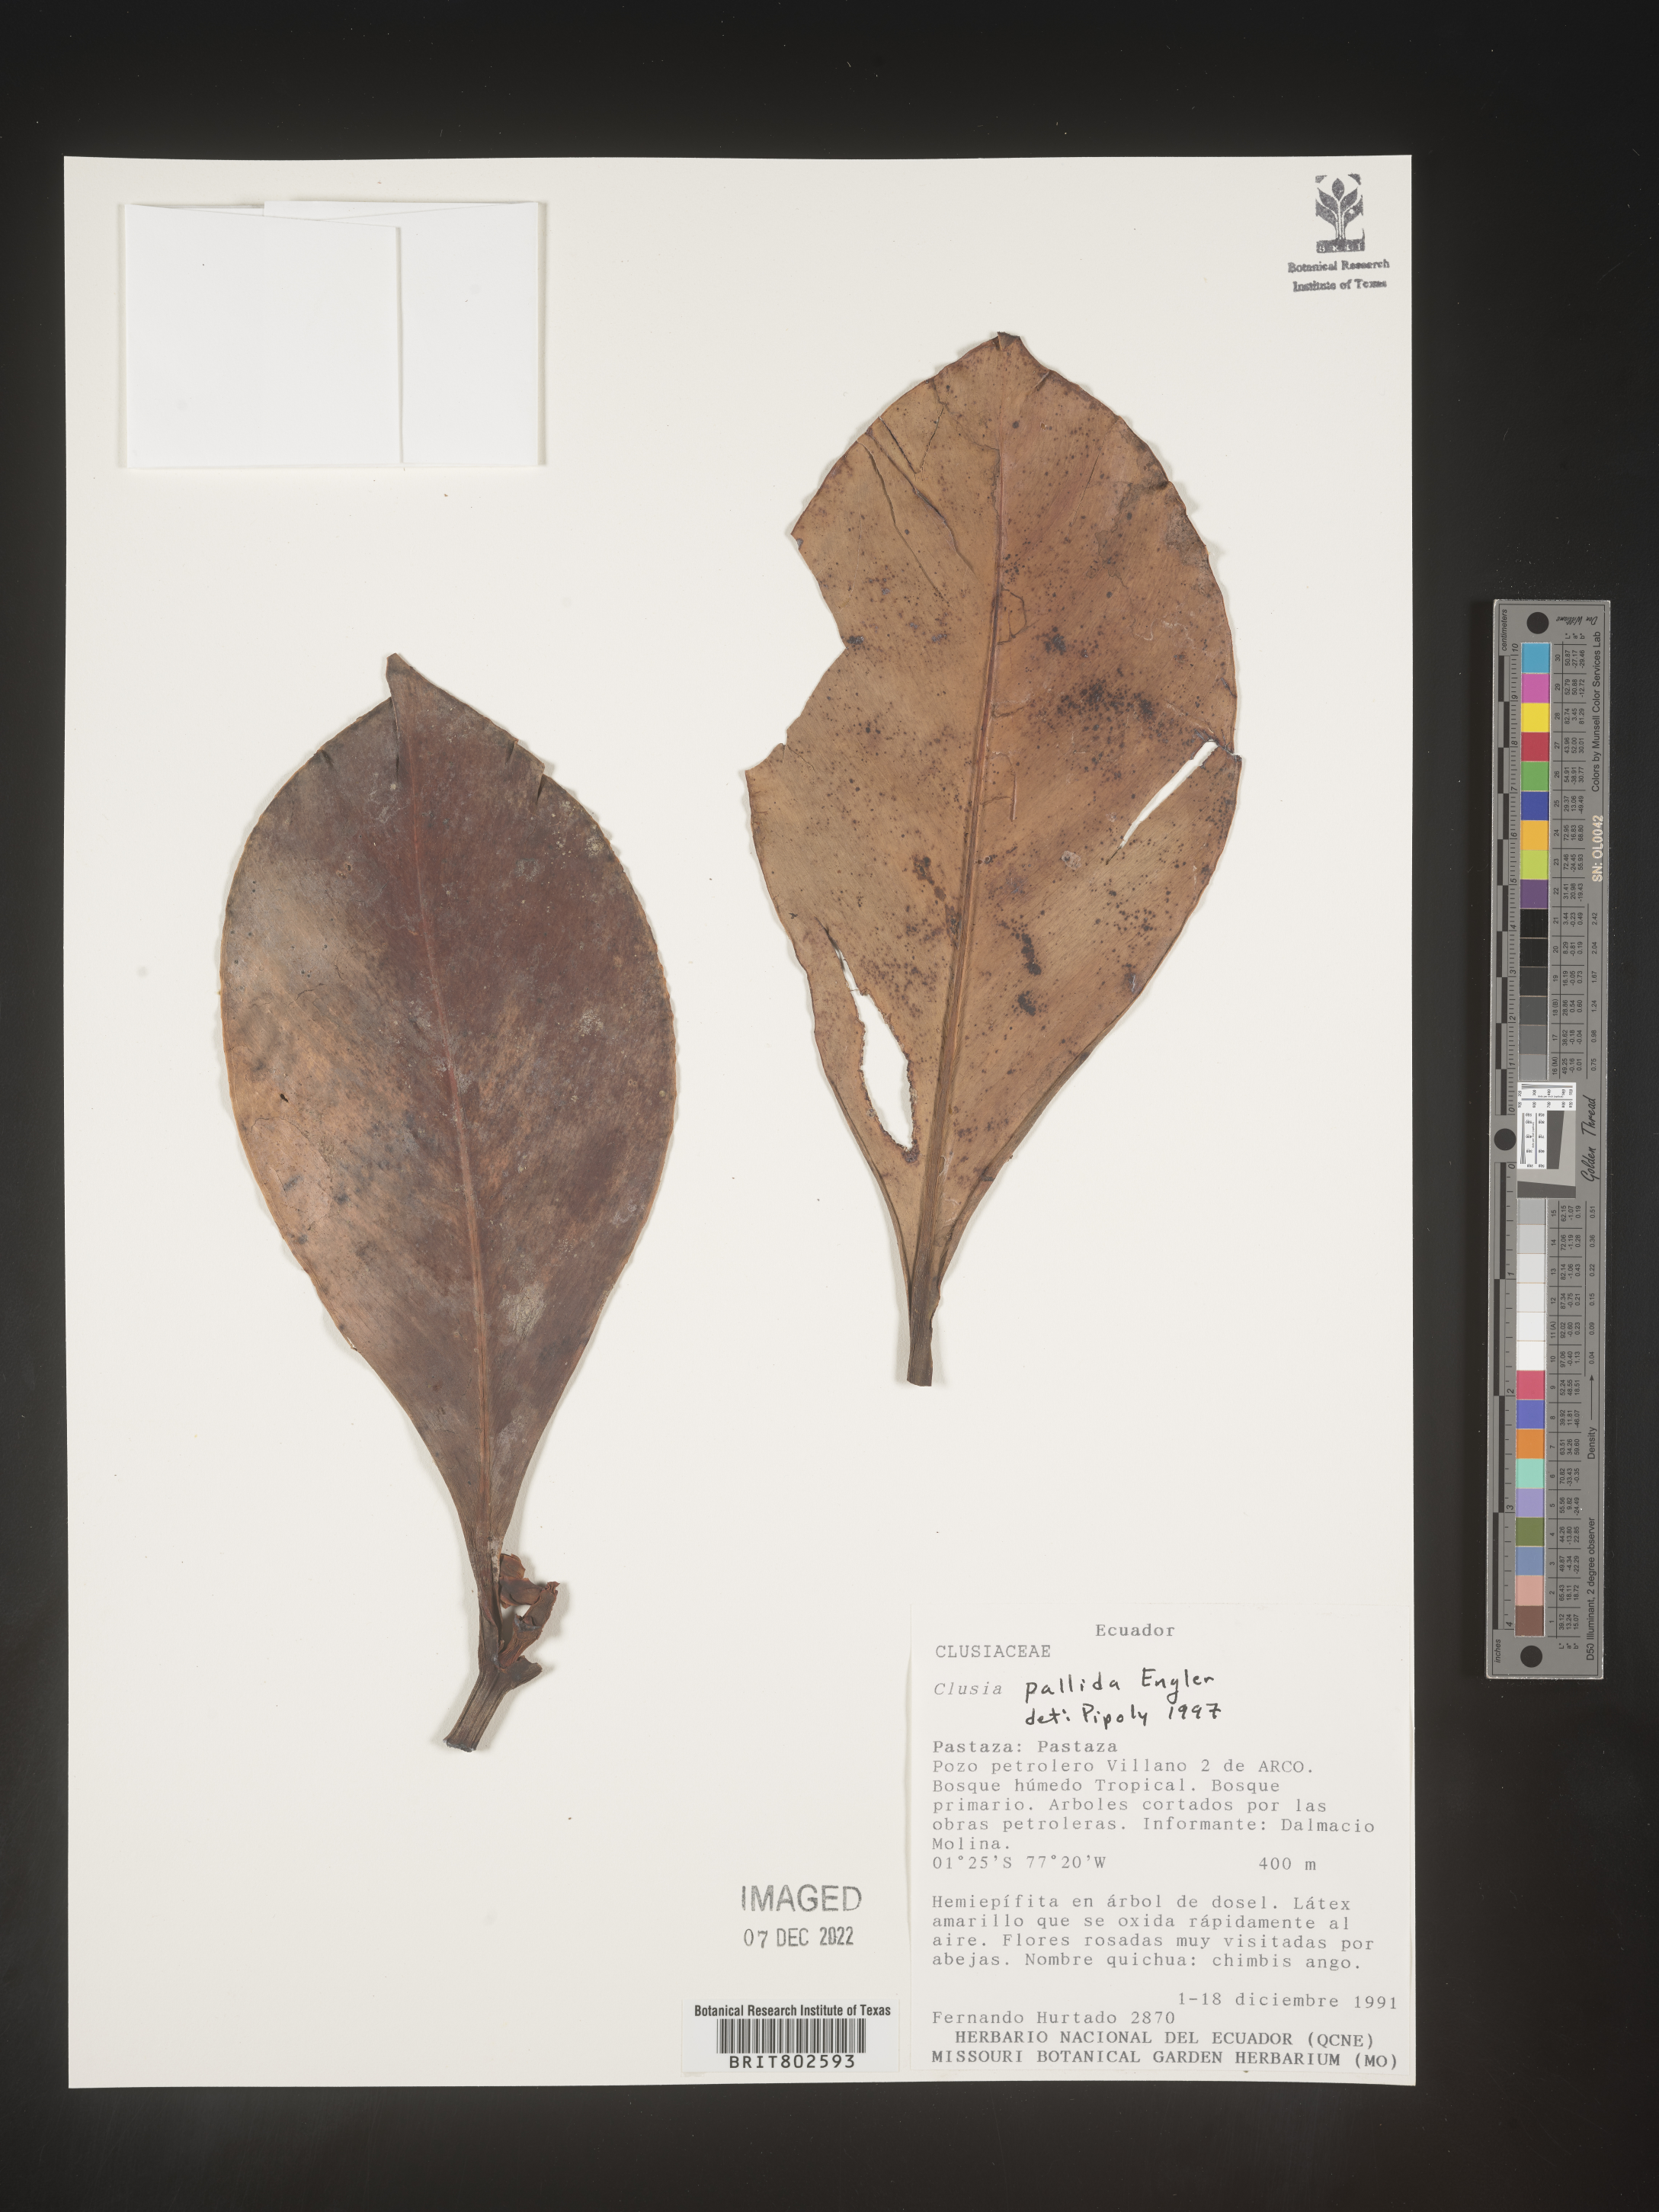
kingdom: Plantae
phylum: Tracheophyta
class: Magnoliopsida
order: Malpighiales
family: Clusiaceae
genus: Clusia
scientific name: Clusia pallida
